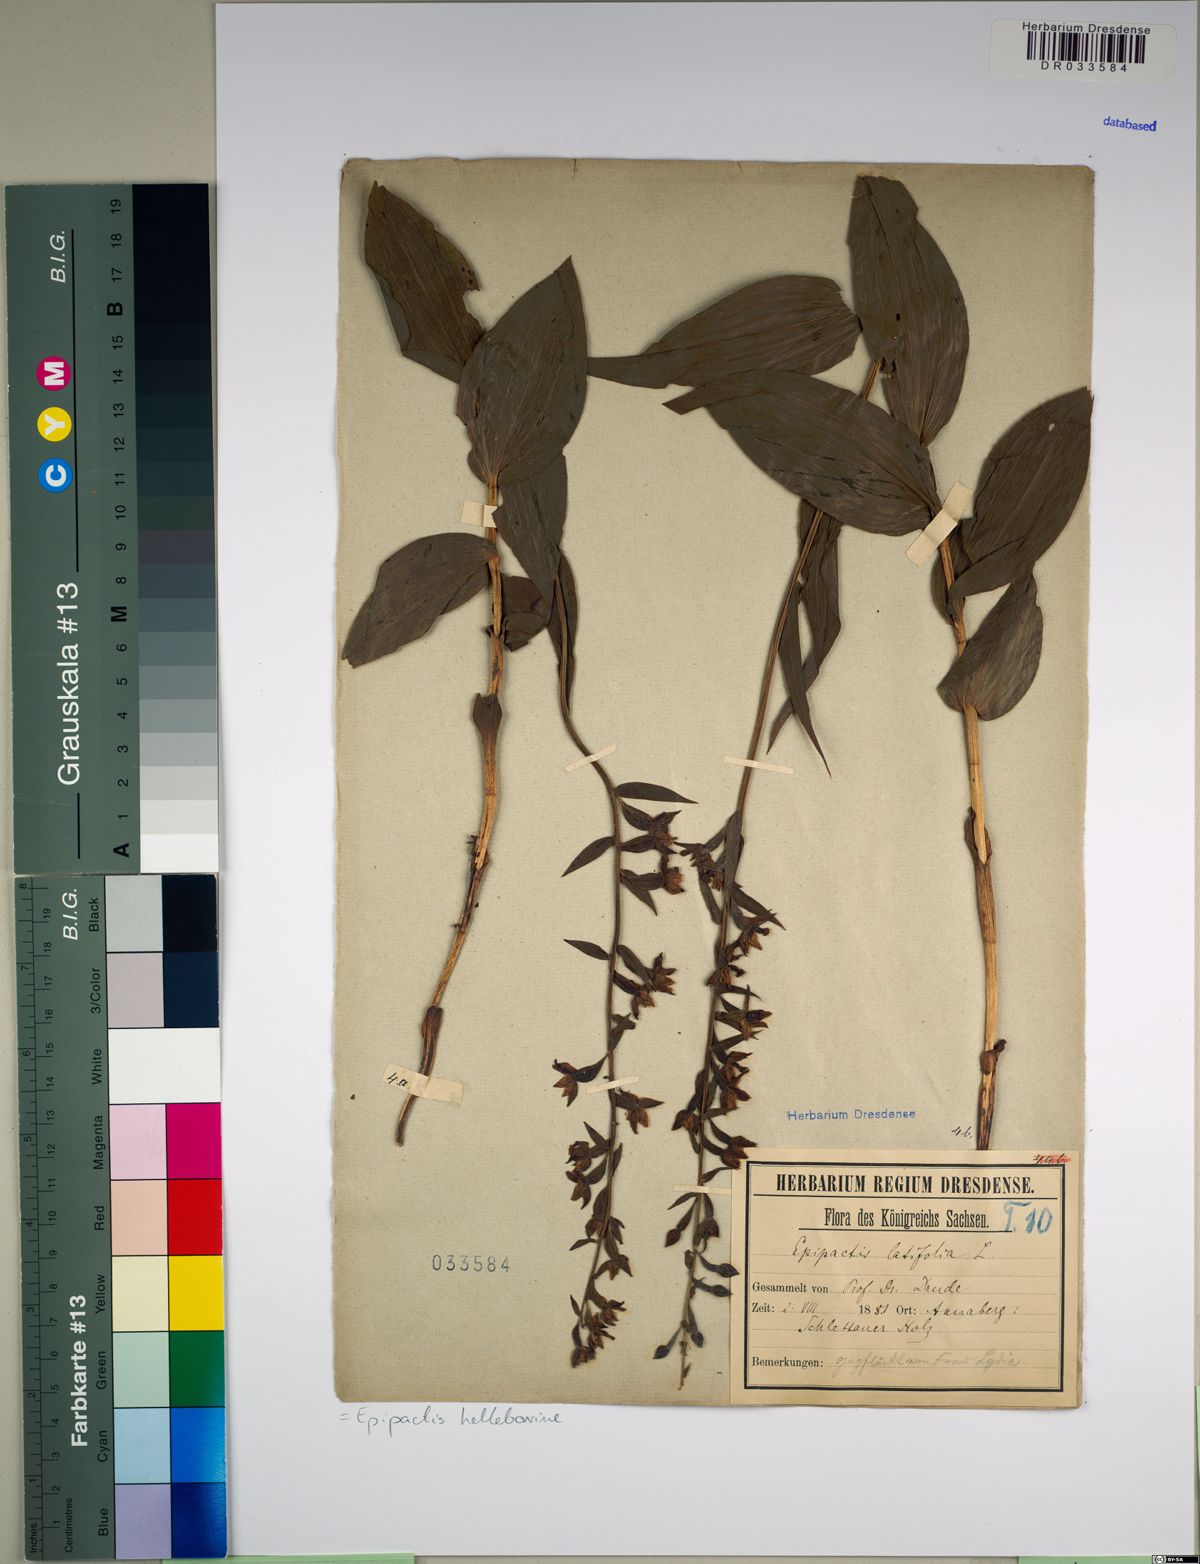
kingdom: Plantae
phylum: Tracheophyta
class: Liliopsida
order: Asparagales
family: Orchidaceae
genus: Epipactis
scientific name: Epipactis helleborine
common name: Broad-leaved helleborine
